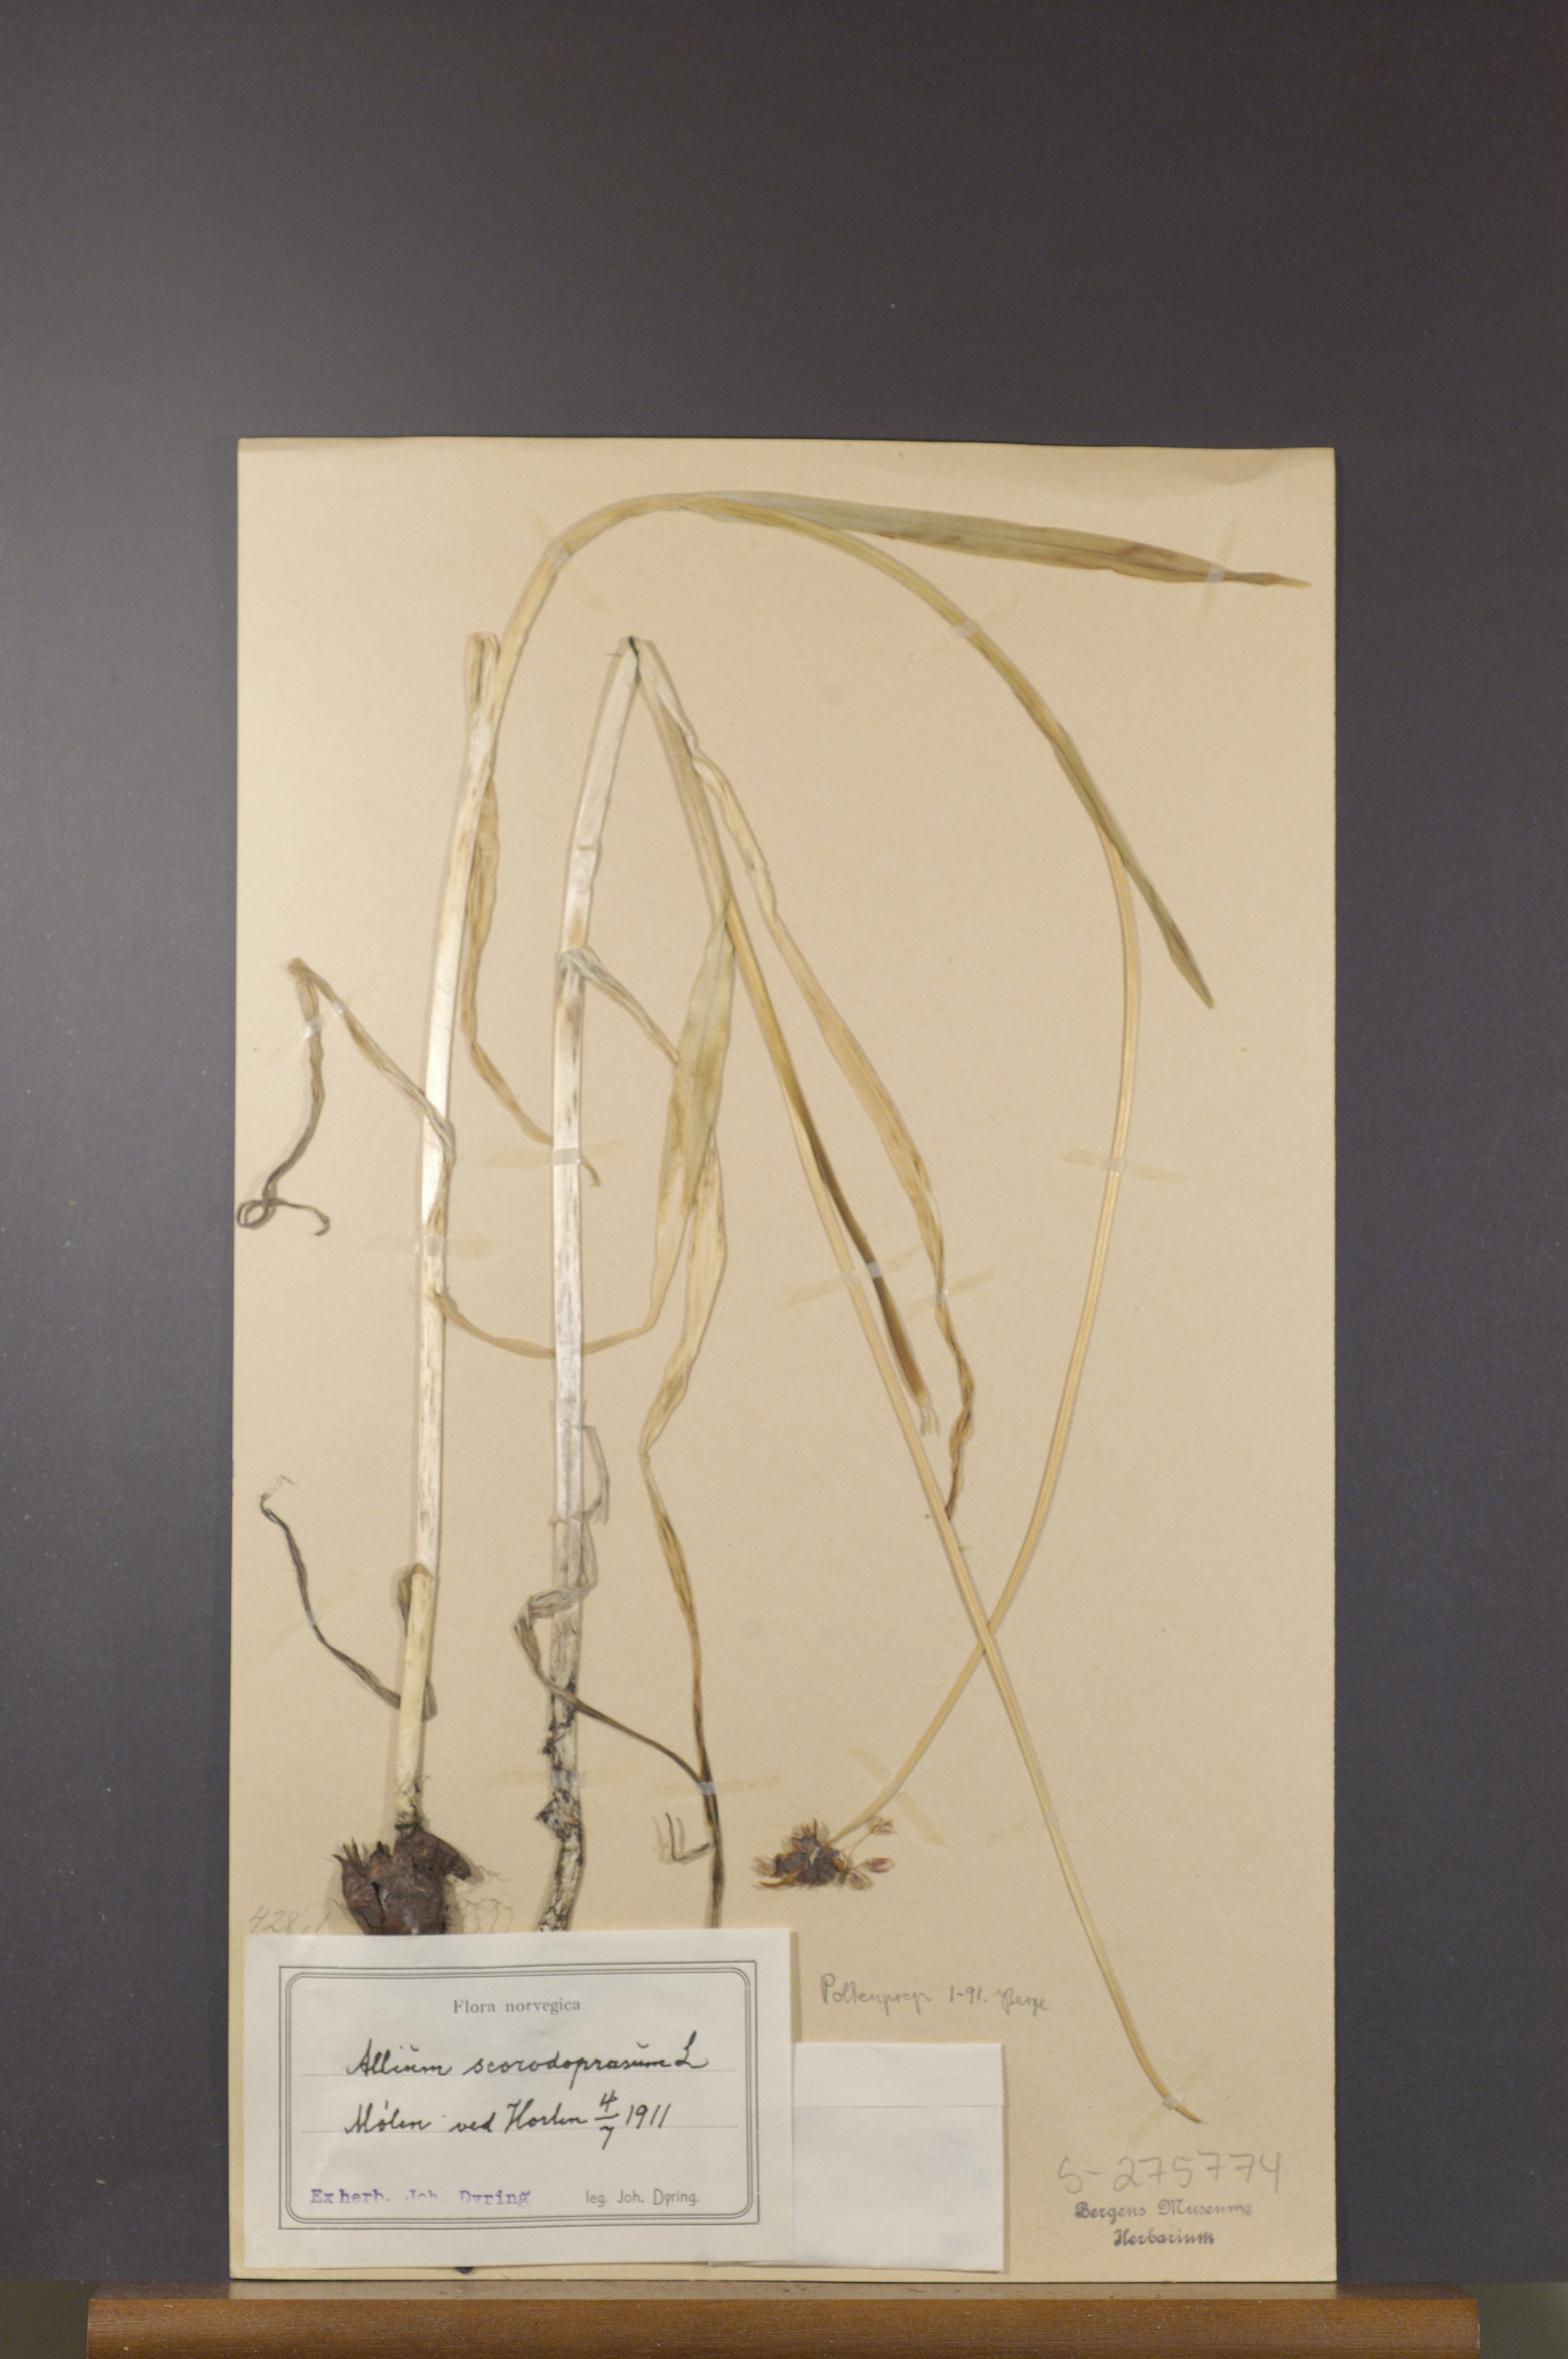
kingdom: Plantae
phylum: Tracheophyta
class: Liliopsida
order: Asparagales
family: Amaryllidaceae
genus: Allium
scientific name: Allium scorodoprasum
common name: Sand leek
